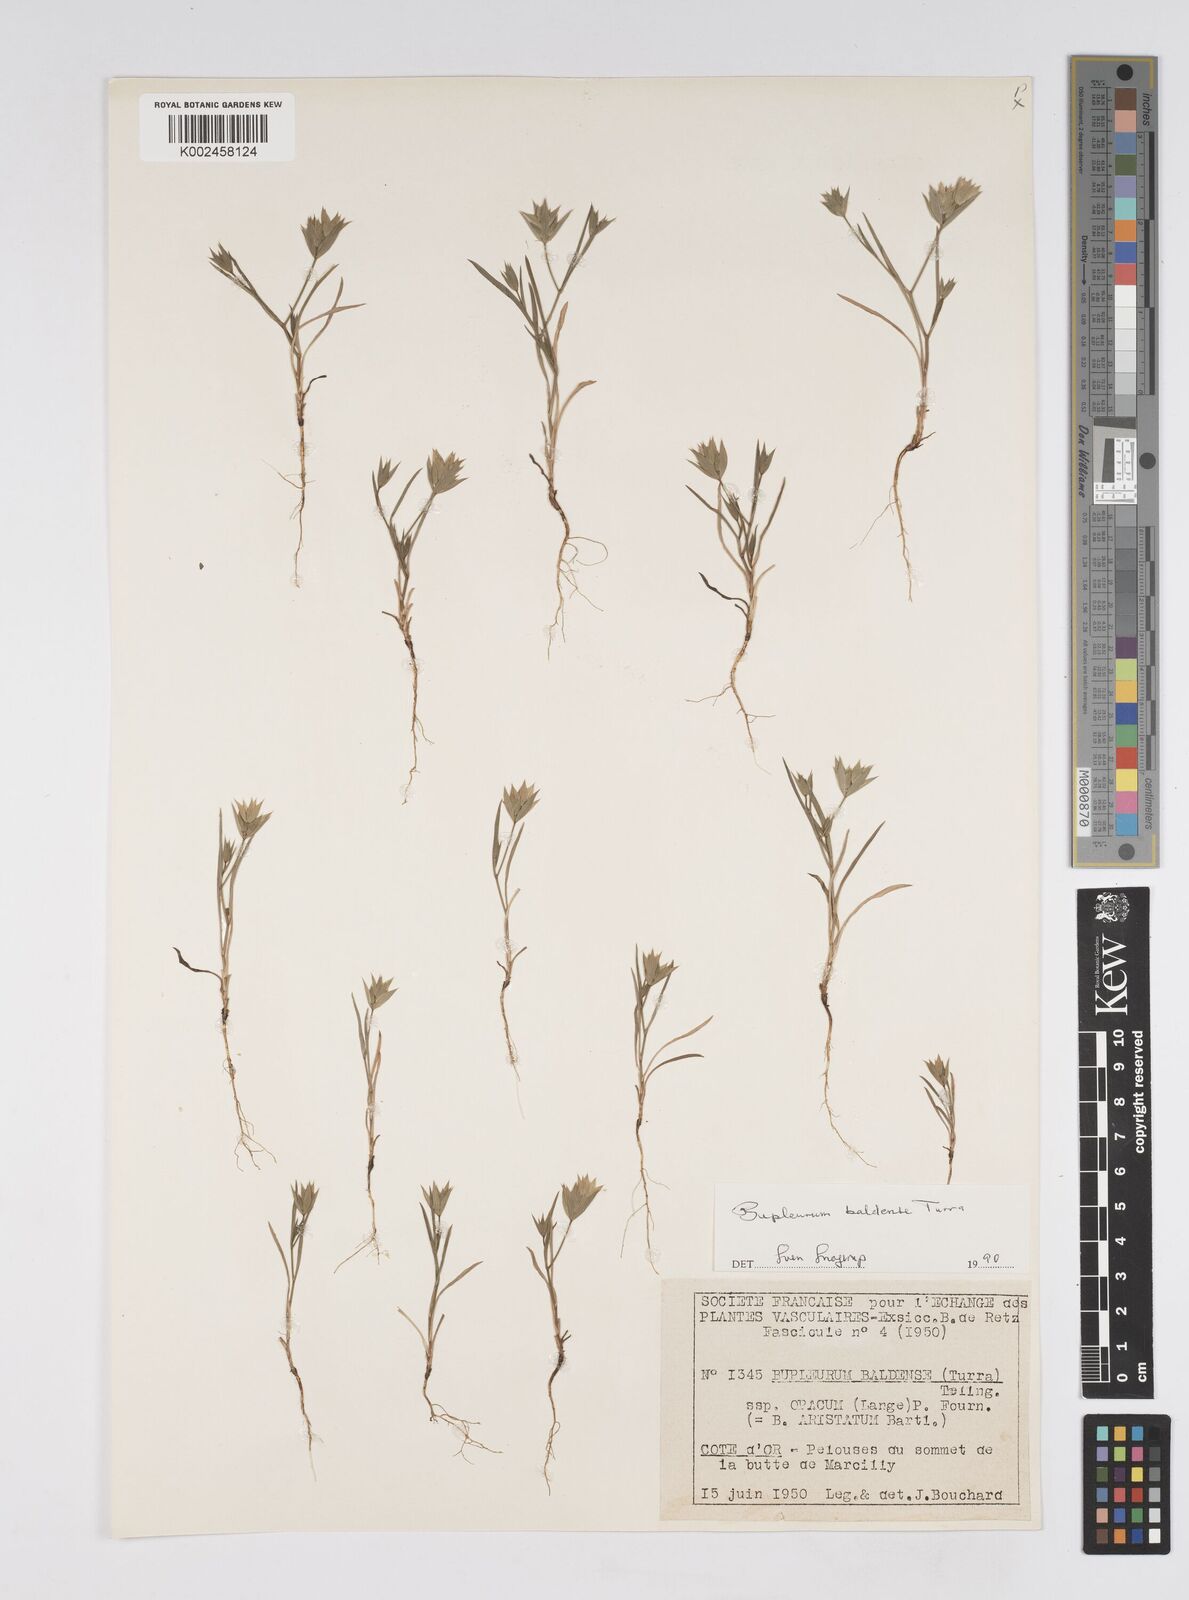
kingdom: Plantae
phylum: Tracheophyta
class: Magnoliopsida
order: Apiales
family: Apiaceae
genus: Bupleurum
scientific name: Bupleurum baldense
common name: Small hare's-ear
